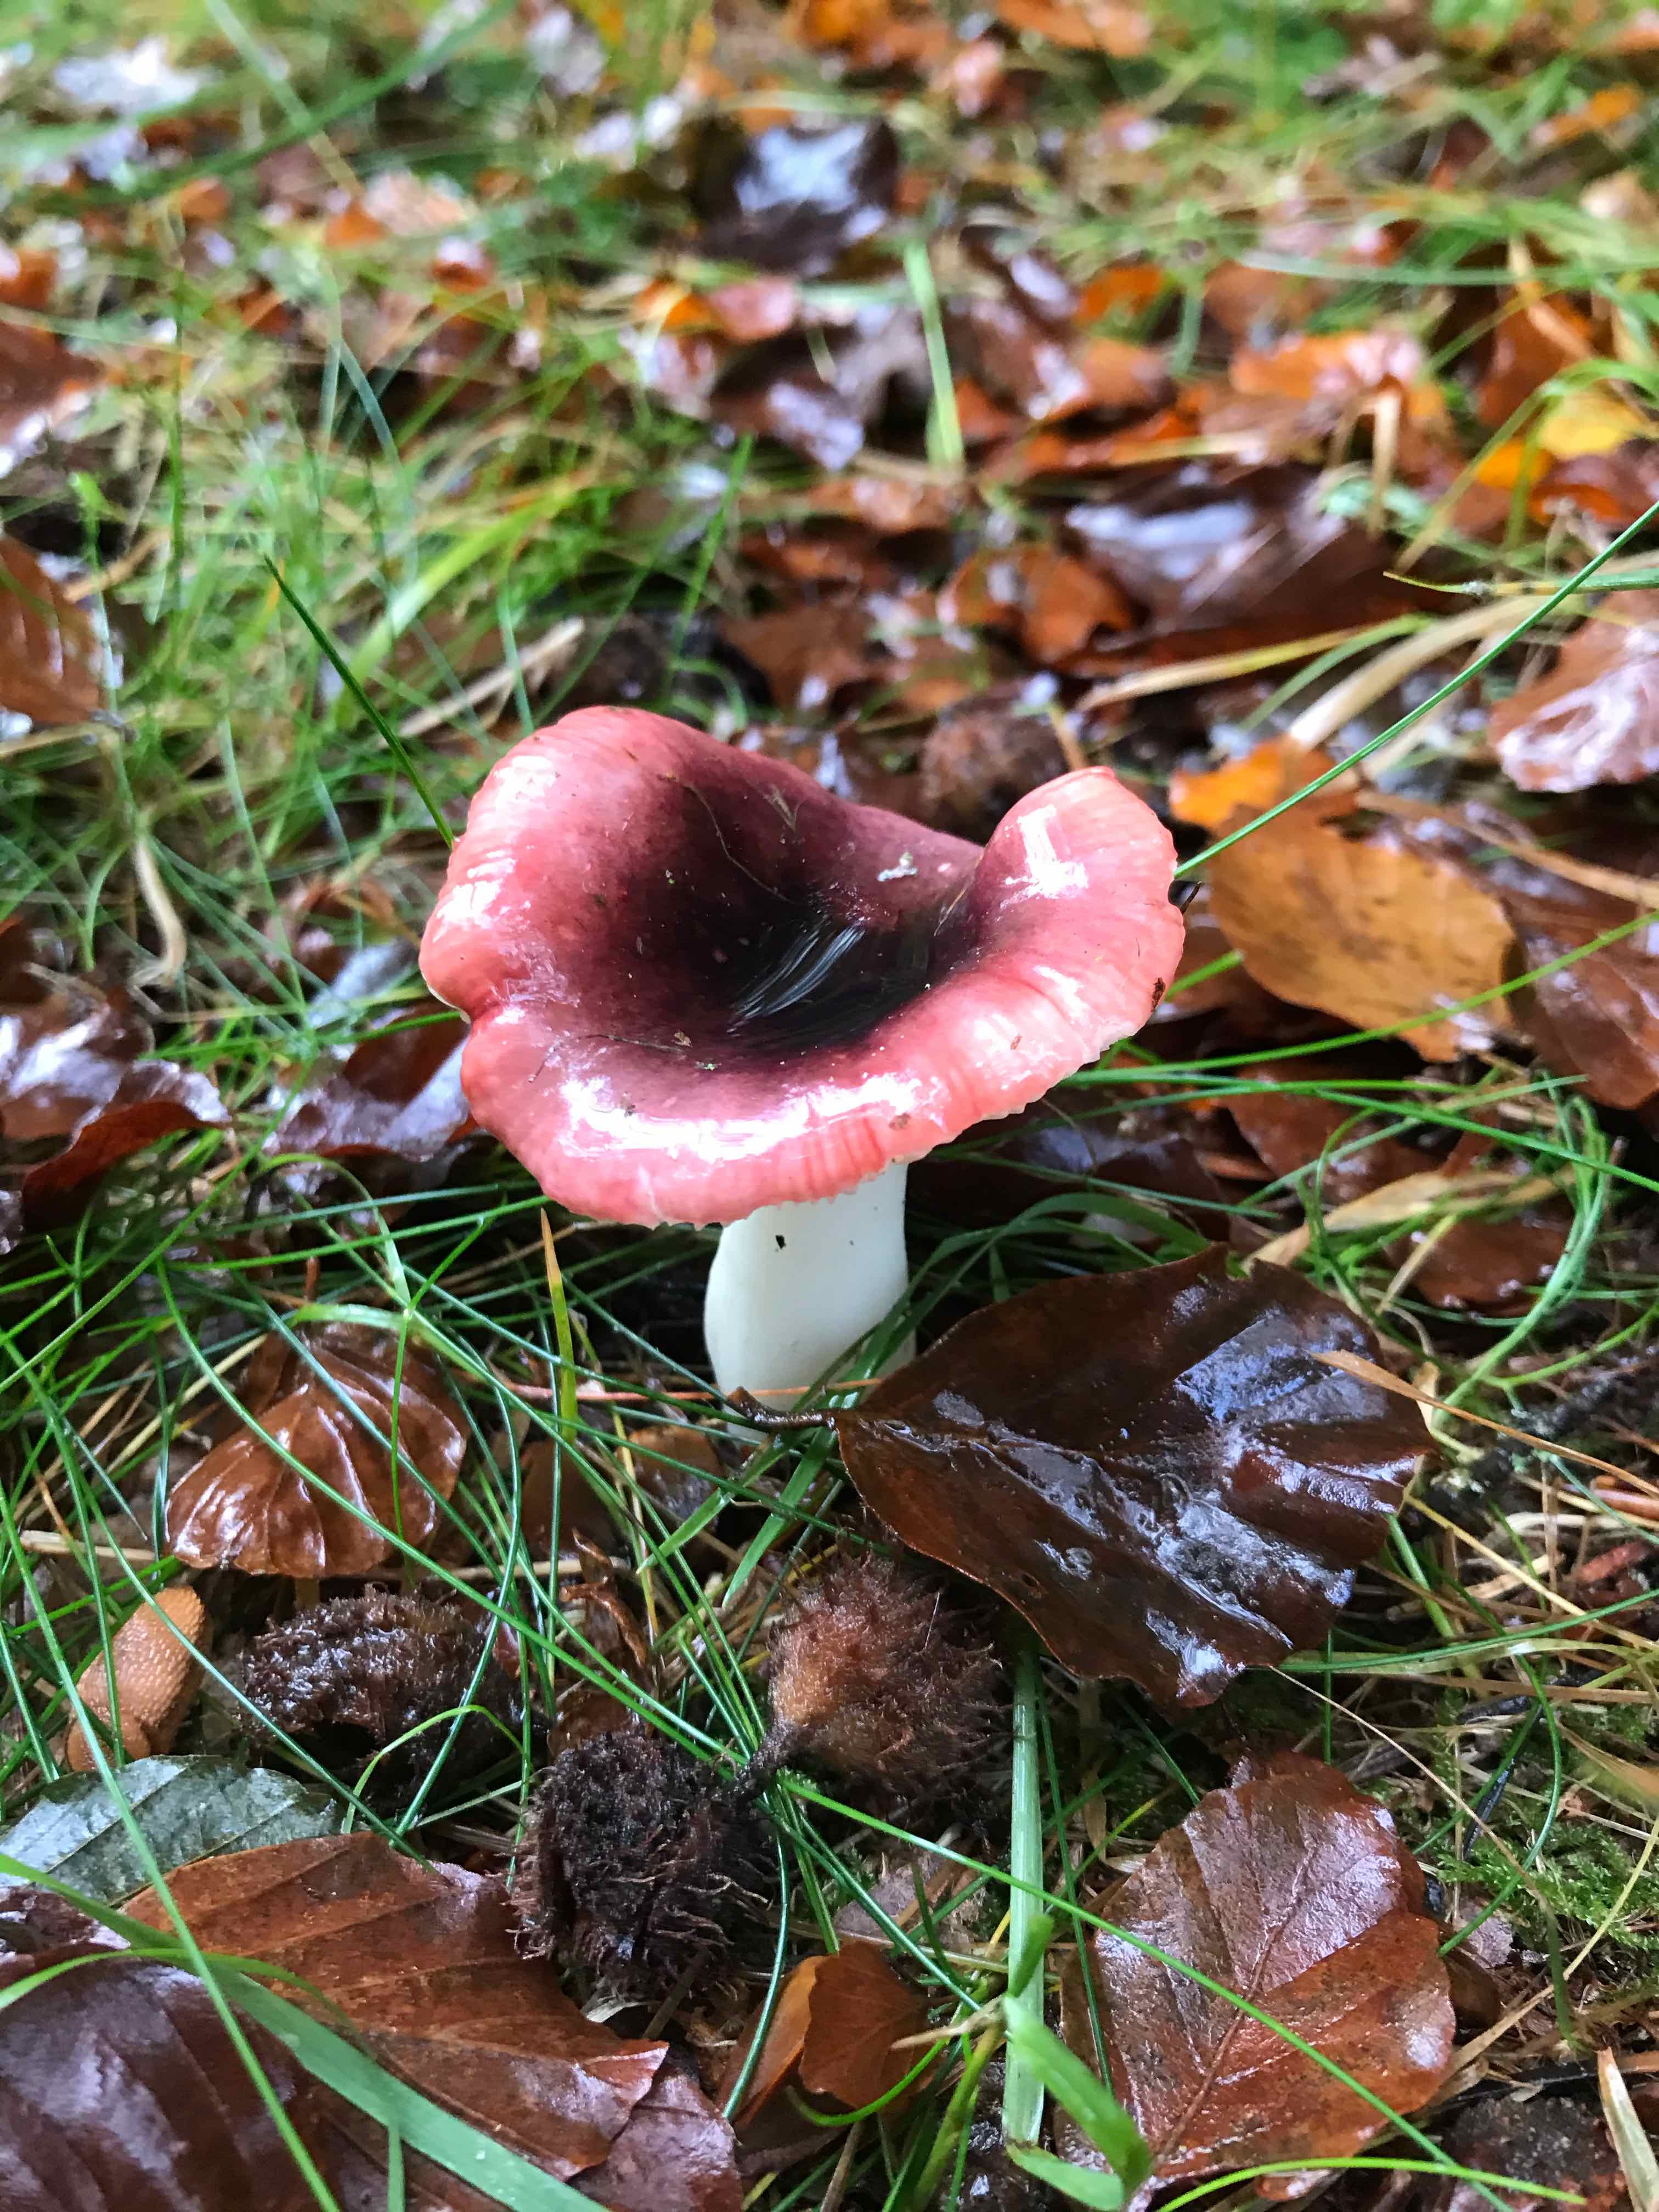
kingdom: Fungi
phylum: Basidiomycota
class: Agaricomycetes
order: Russulales
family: Russulaceae
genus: Russula
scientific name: Russula
